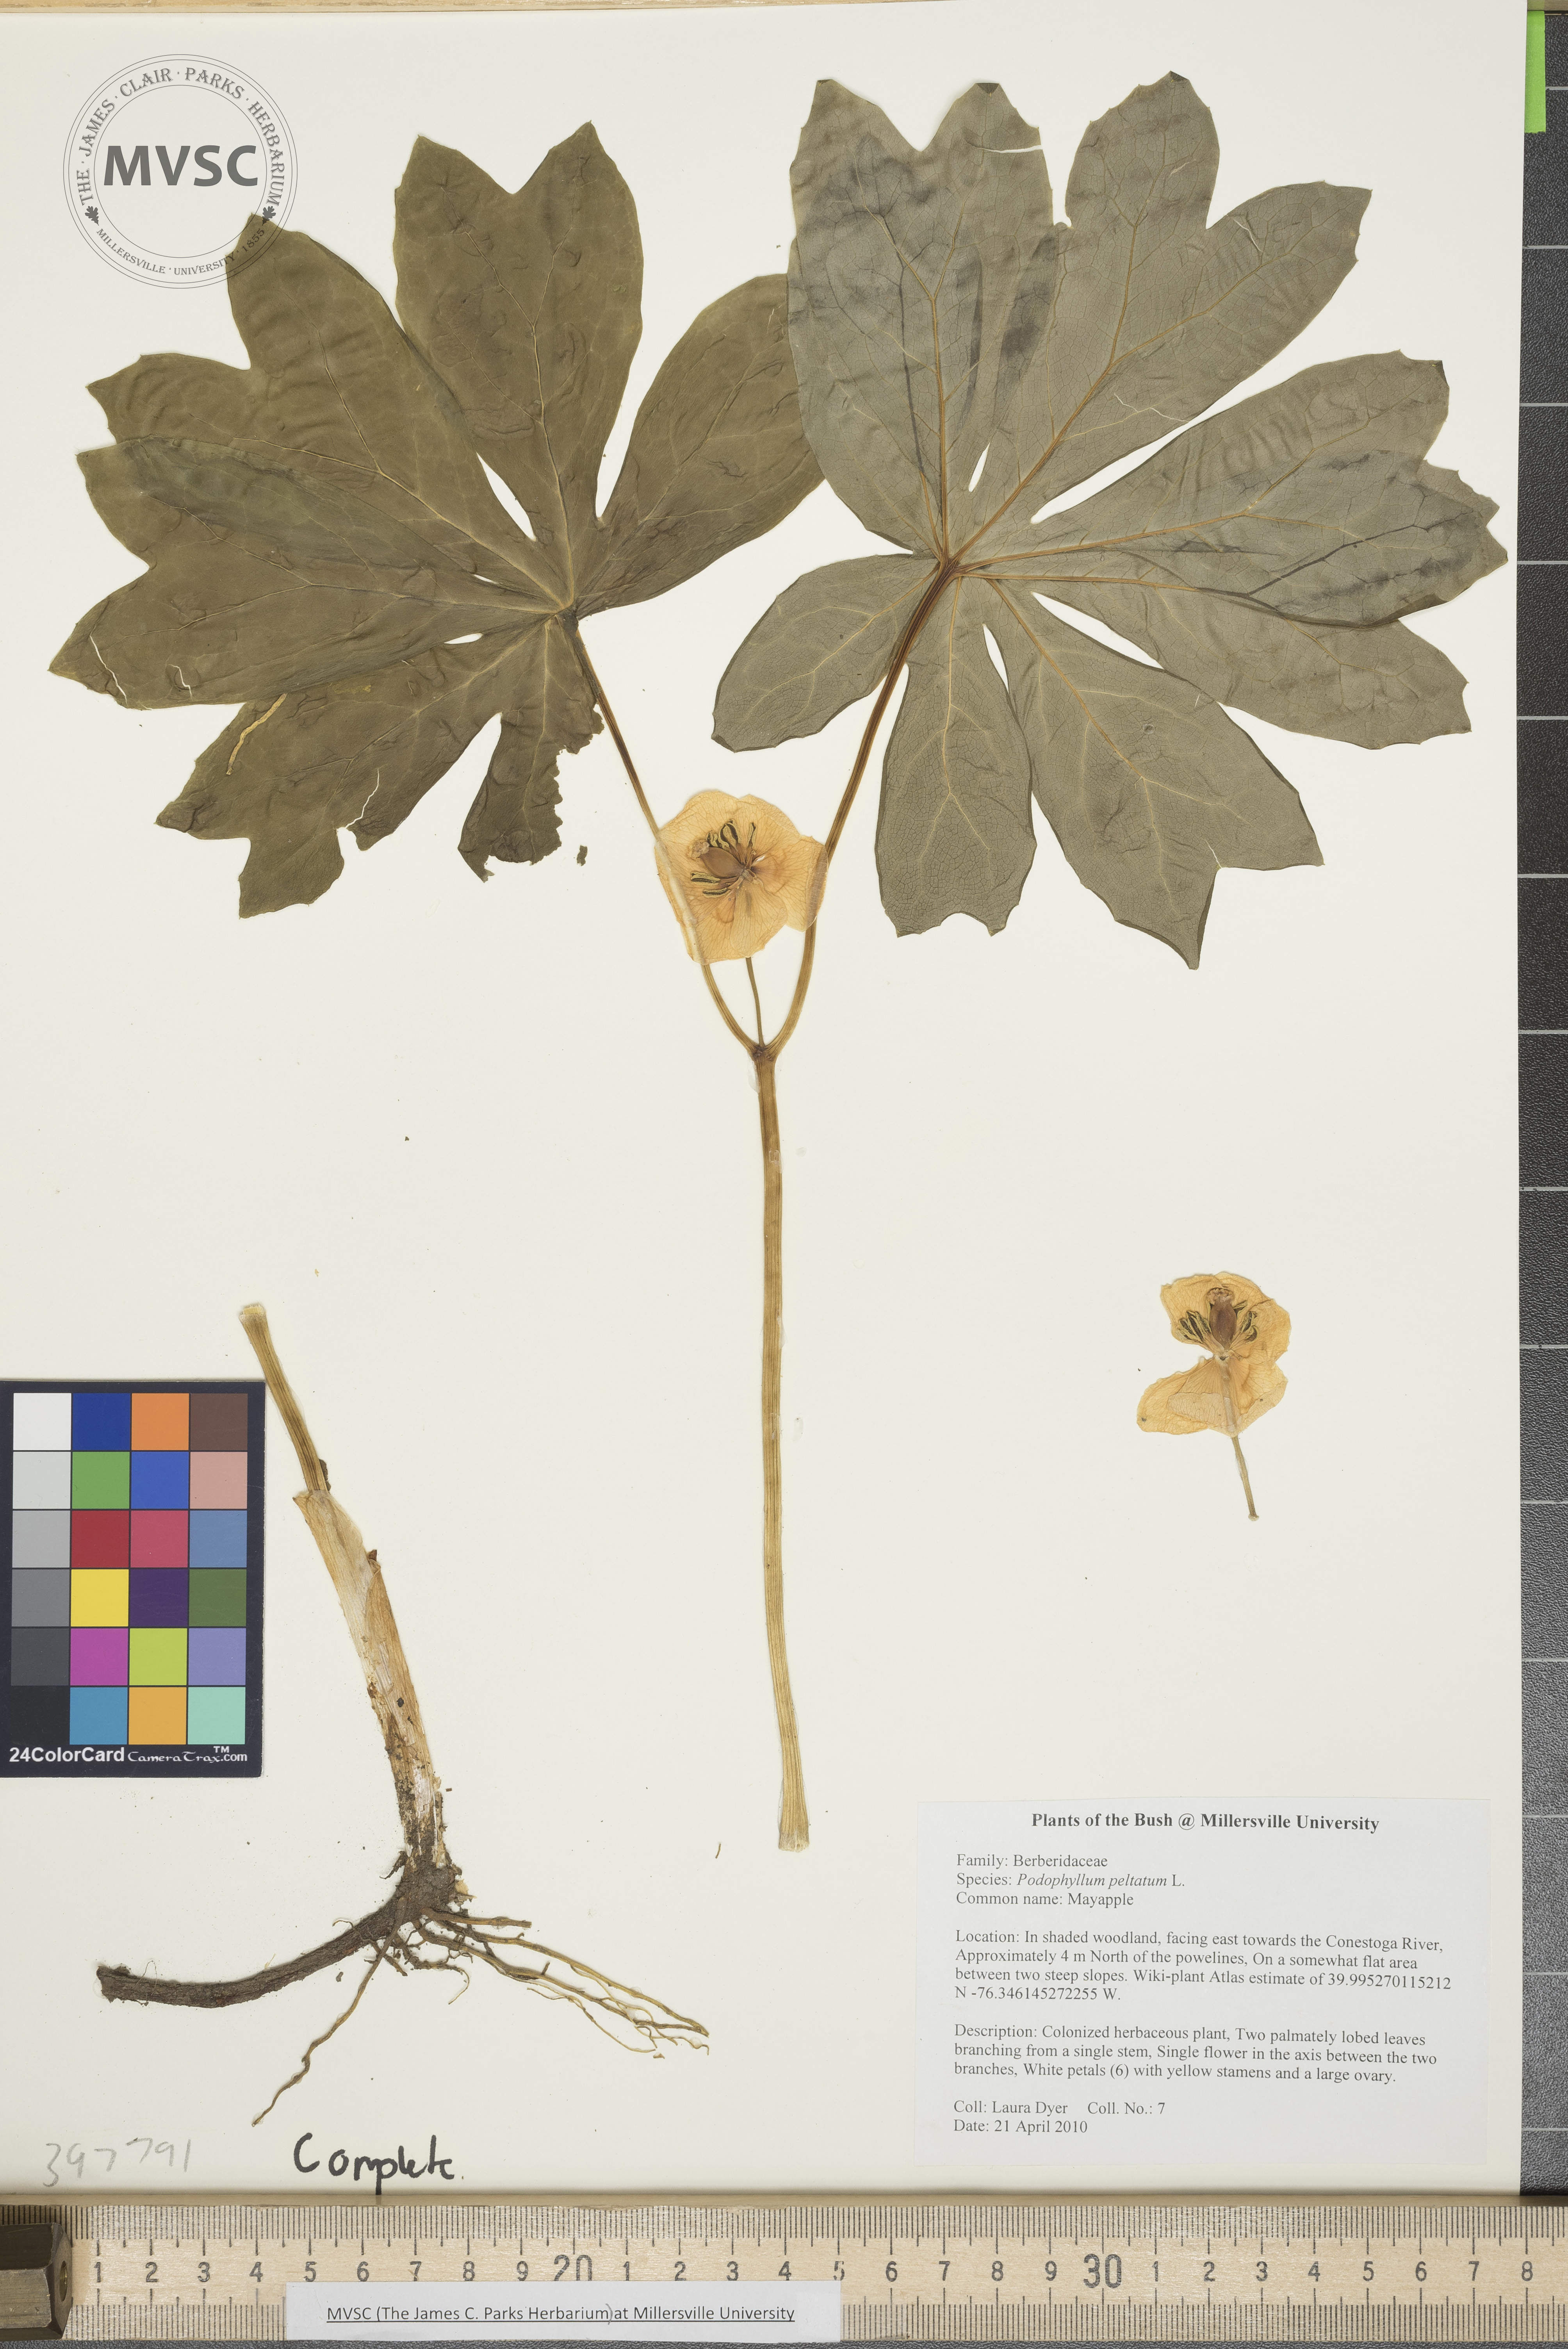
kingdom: Plantae
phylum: Tracheophyta
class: Magnoliopsida
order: Ranunculales
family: Berberidaceae
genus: Podophyllum
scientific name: Podophyllum peltatum
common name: Mayapple
